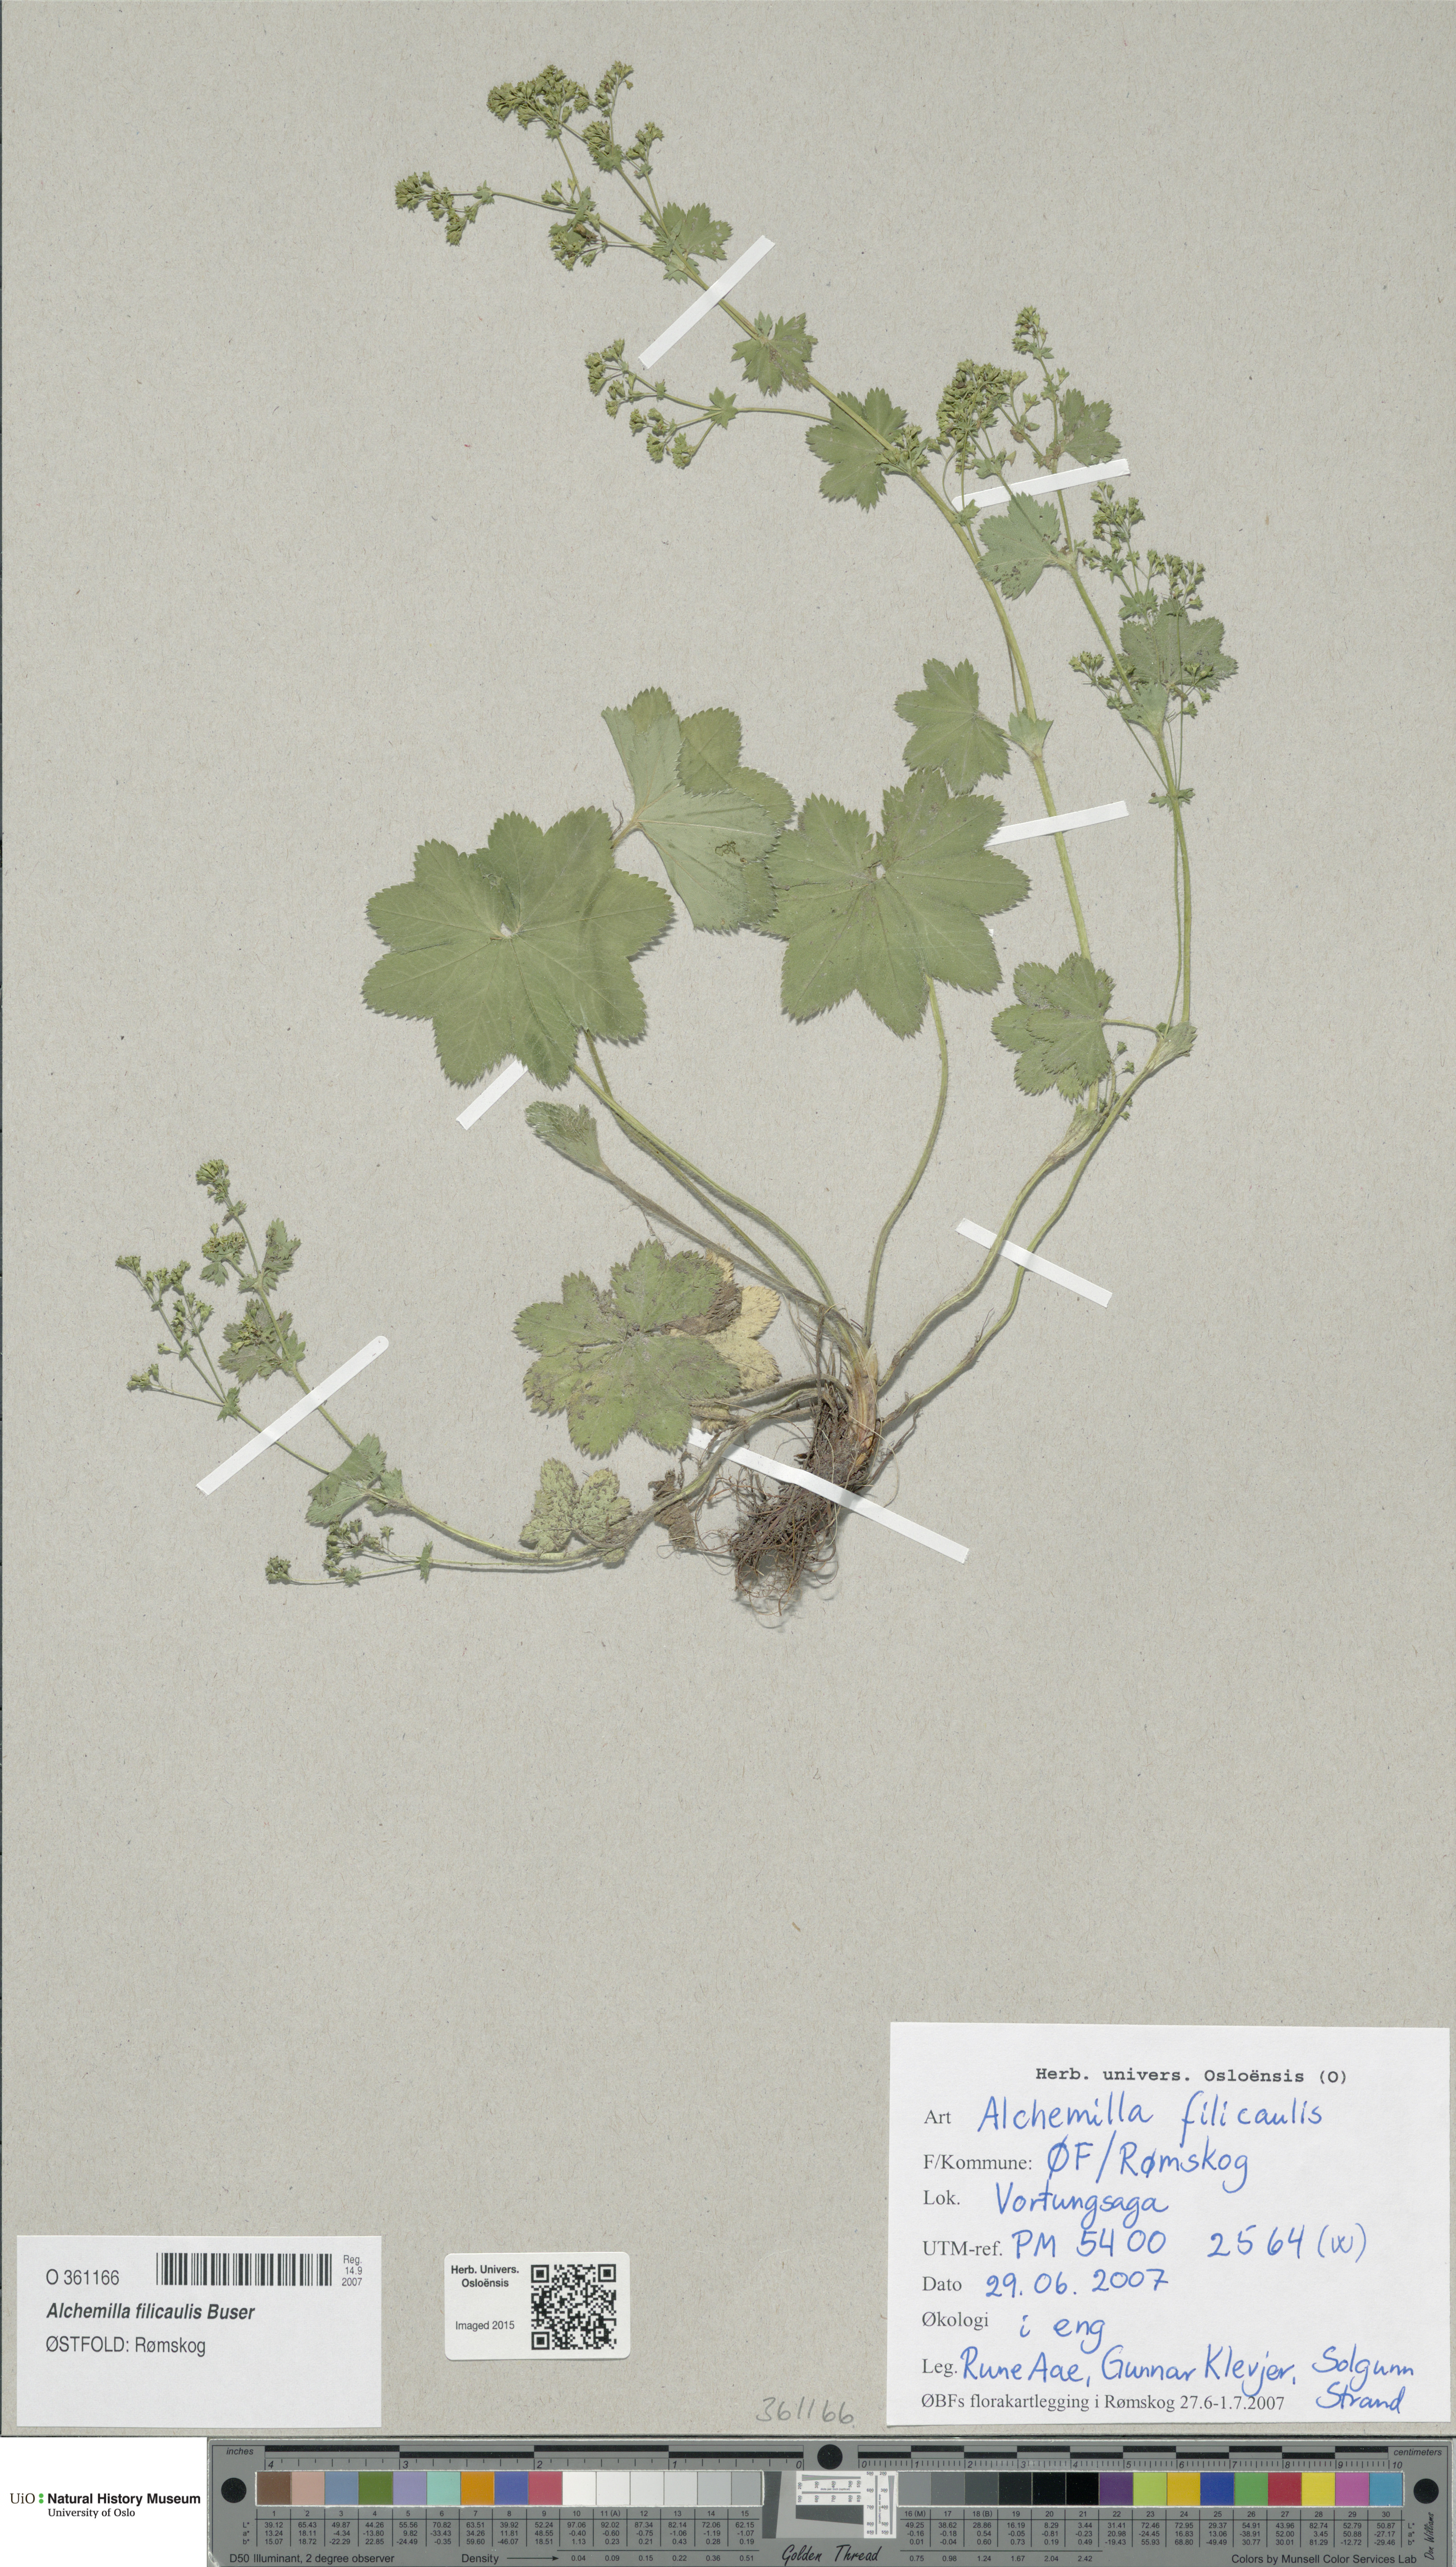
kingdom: Plantae
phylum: Tracheophyta
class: Magnoliopsida
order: Rosales
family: Rosaceae
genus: Alchemilla
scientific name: Alchemilla filicaulis
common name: Hairy lady's-mantle
